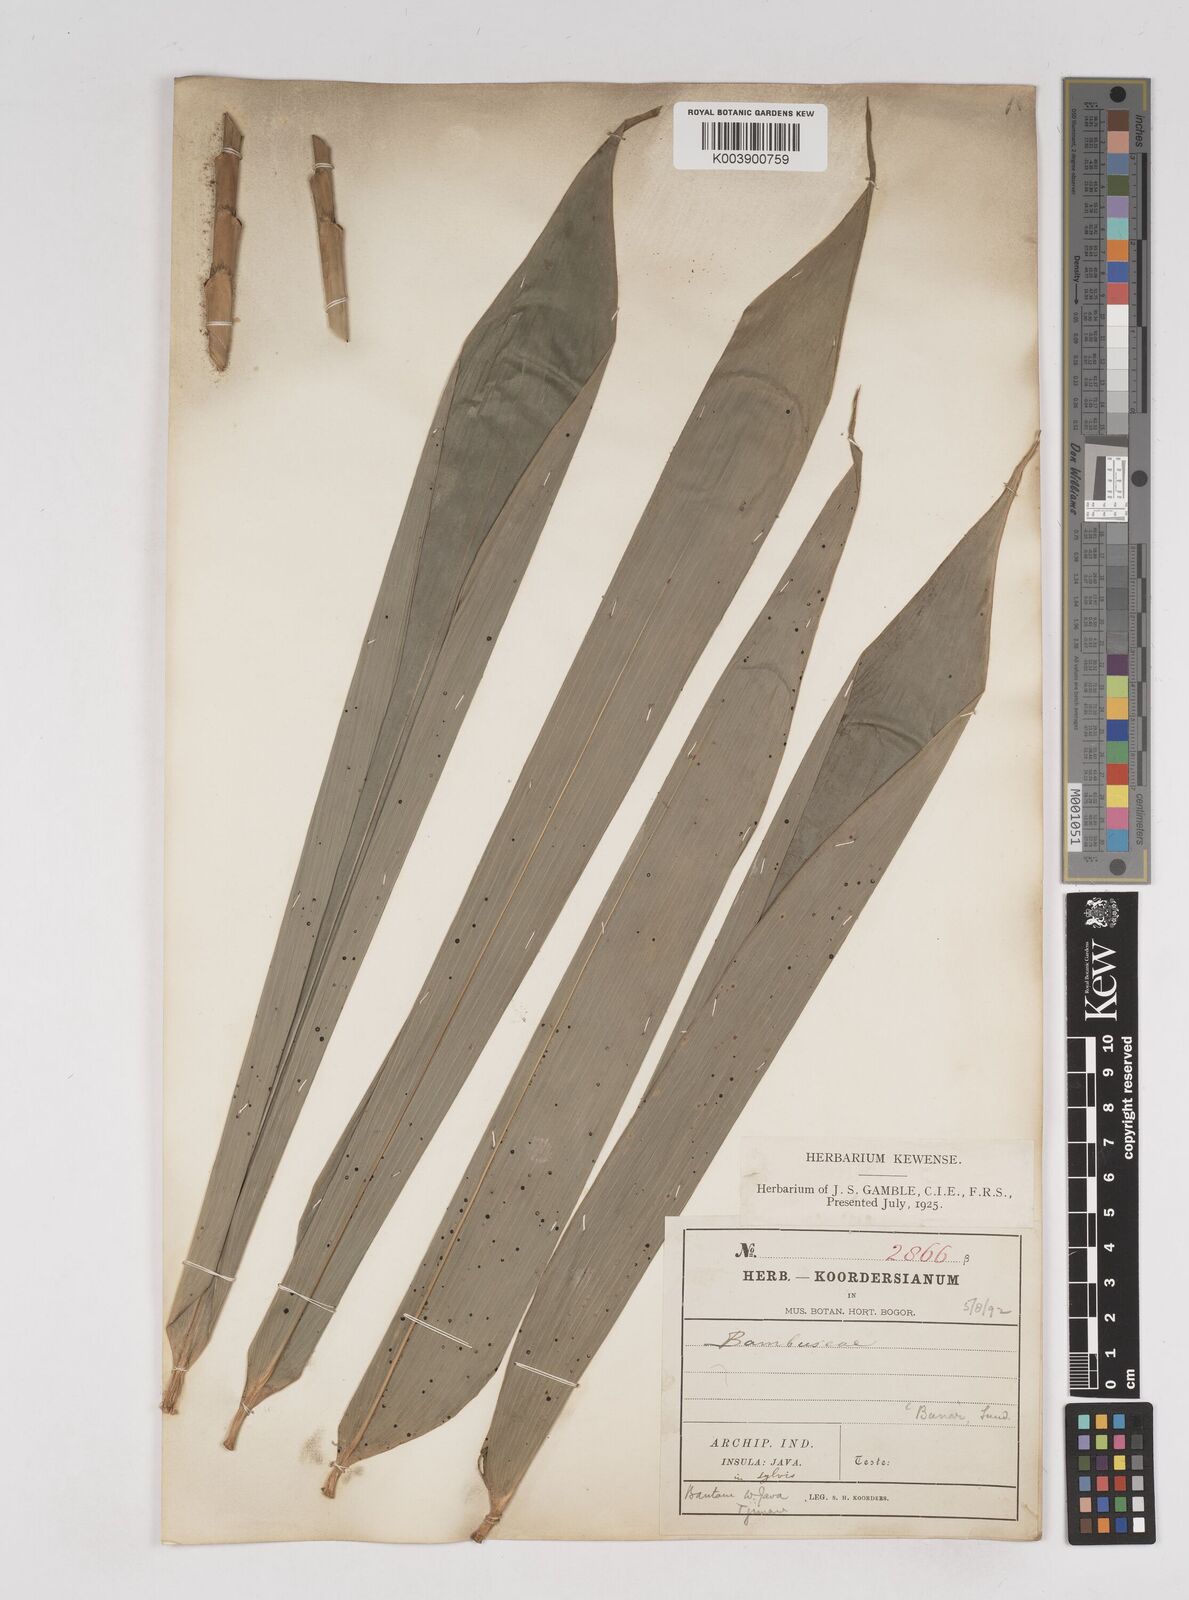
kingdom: Plantae
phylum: Tracheophyta
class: Liliopsida
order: Poales
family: Poaceae
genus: Gigantochloa
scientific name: Gigantochloa
